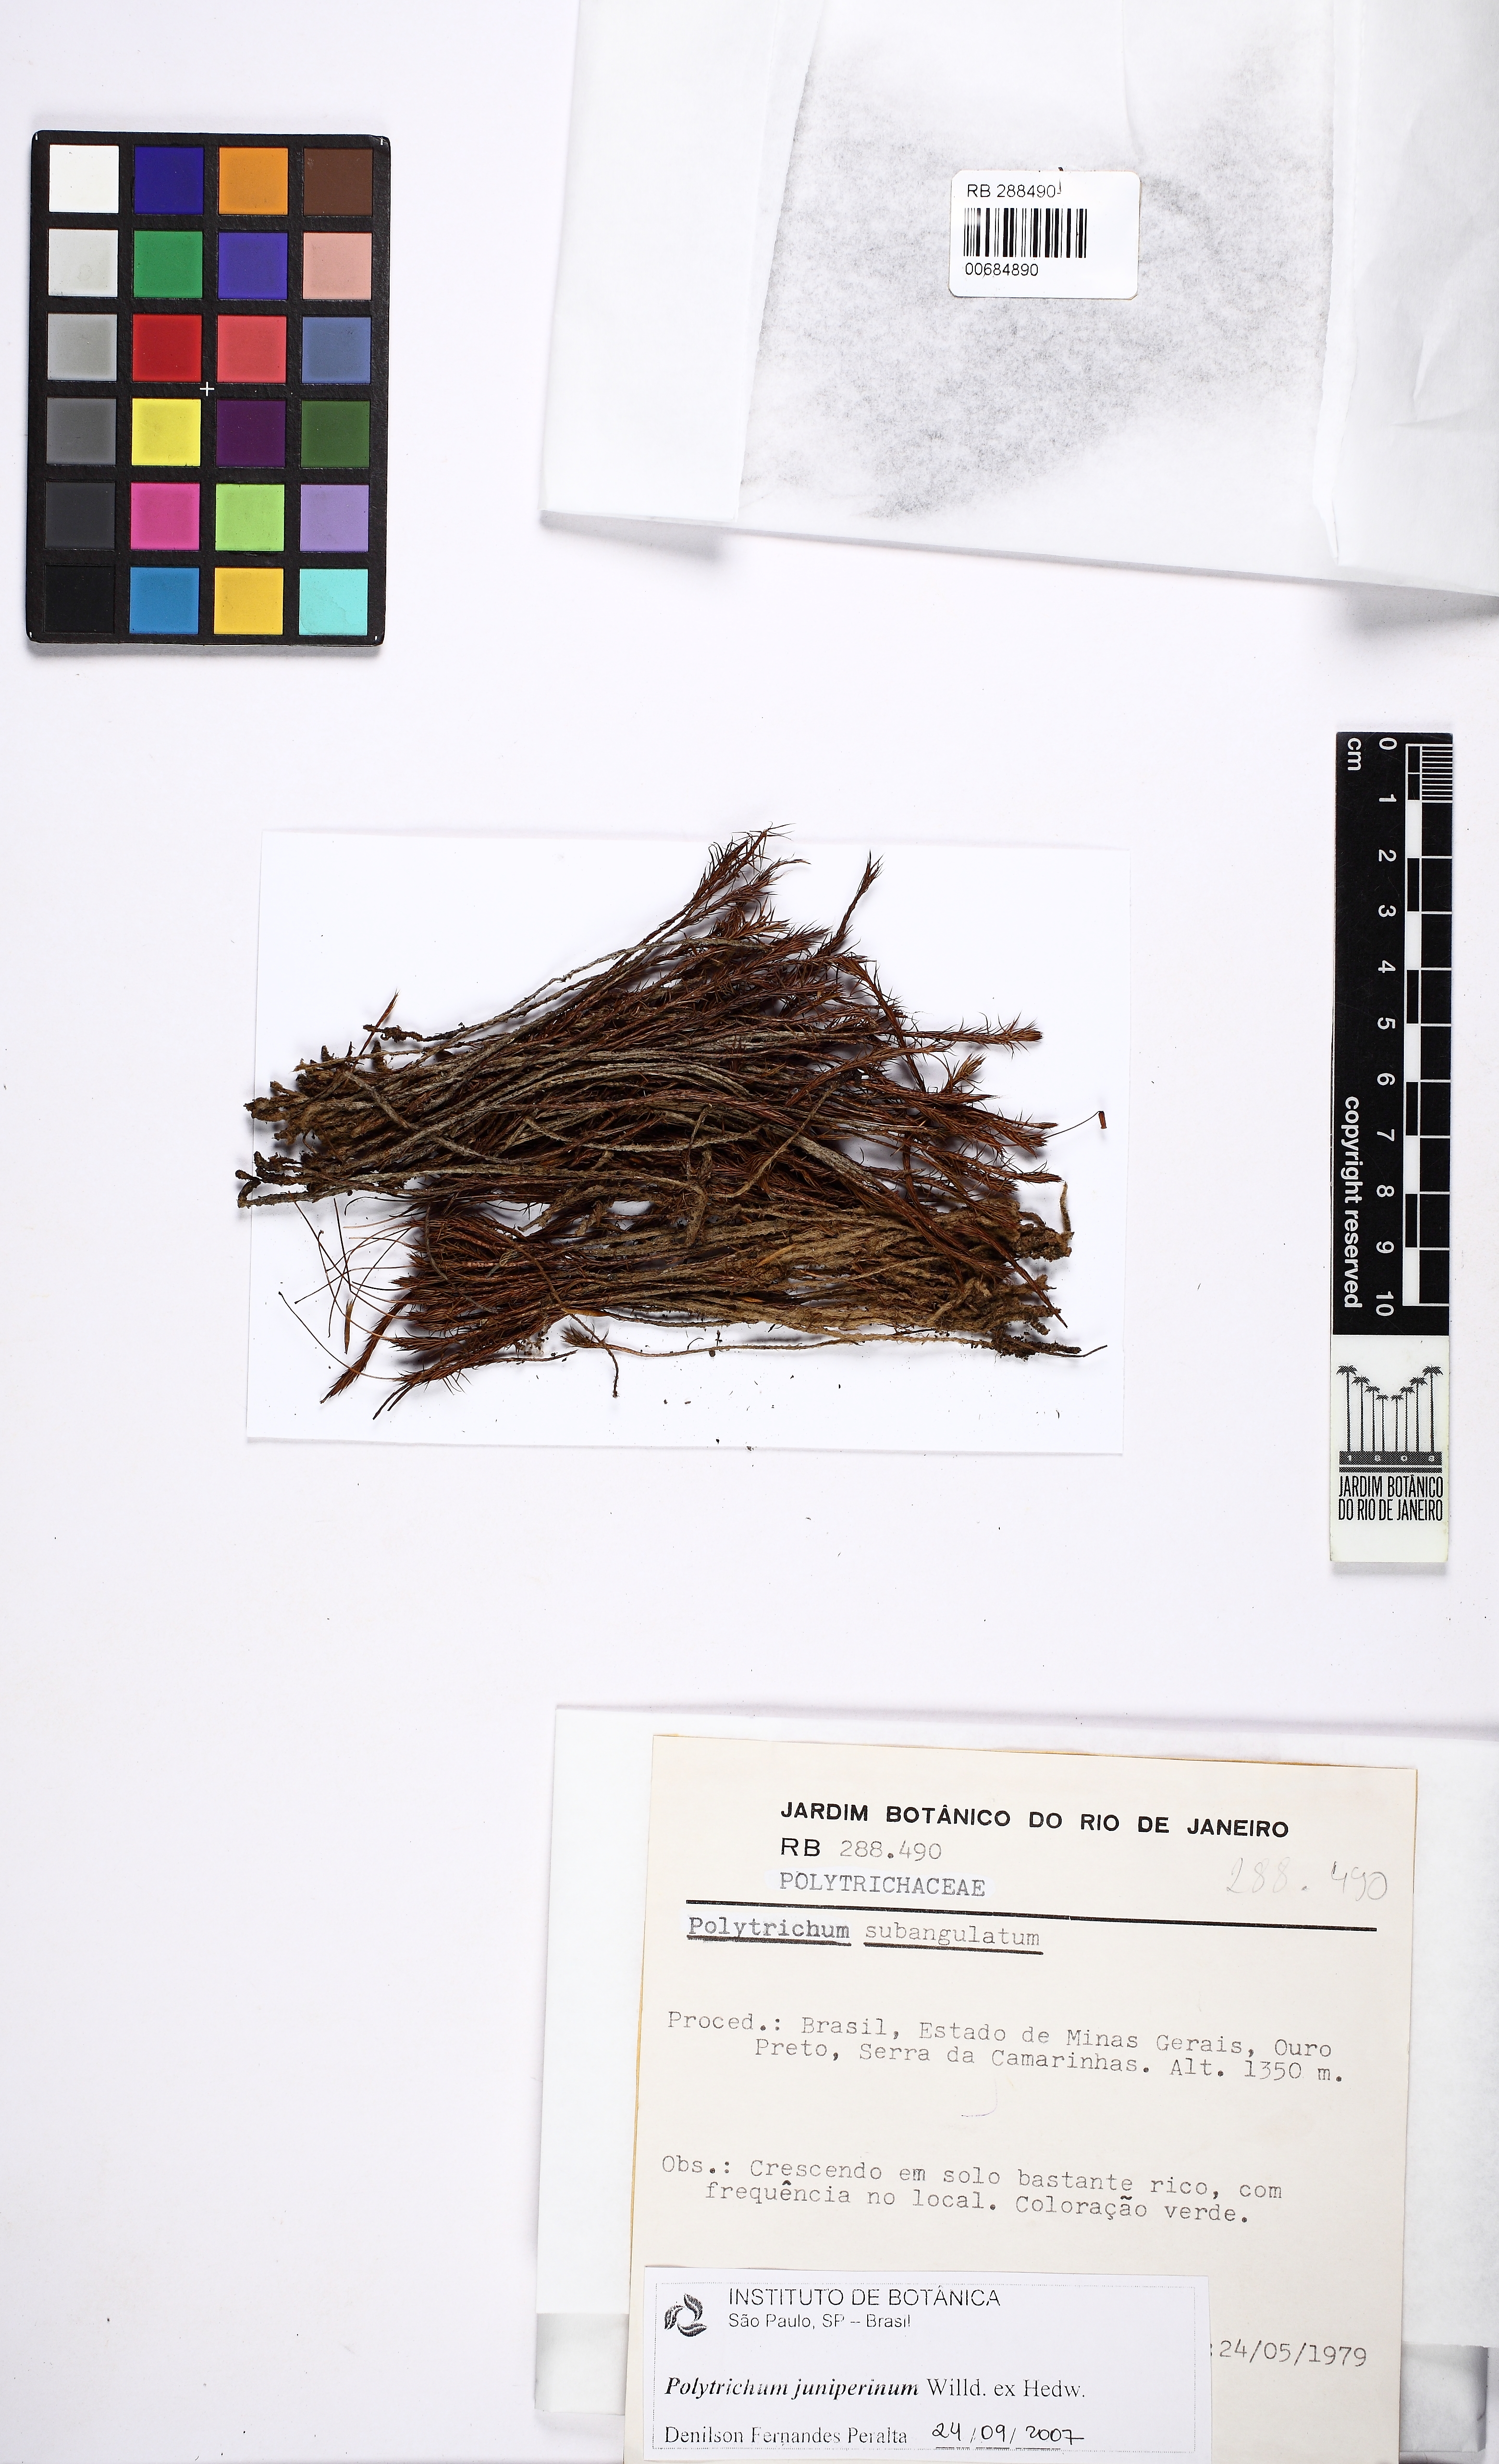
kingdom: Plantae
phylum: Bryophyta
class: Polytrichopsida
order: Polytrichales
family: Polytrichaceae
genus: Polytrichum
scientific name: Polytrichum juniperinum
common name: Juniper haircap moss
